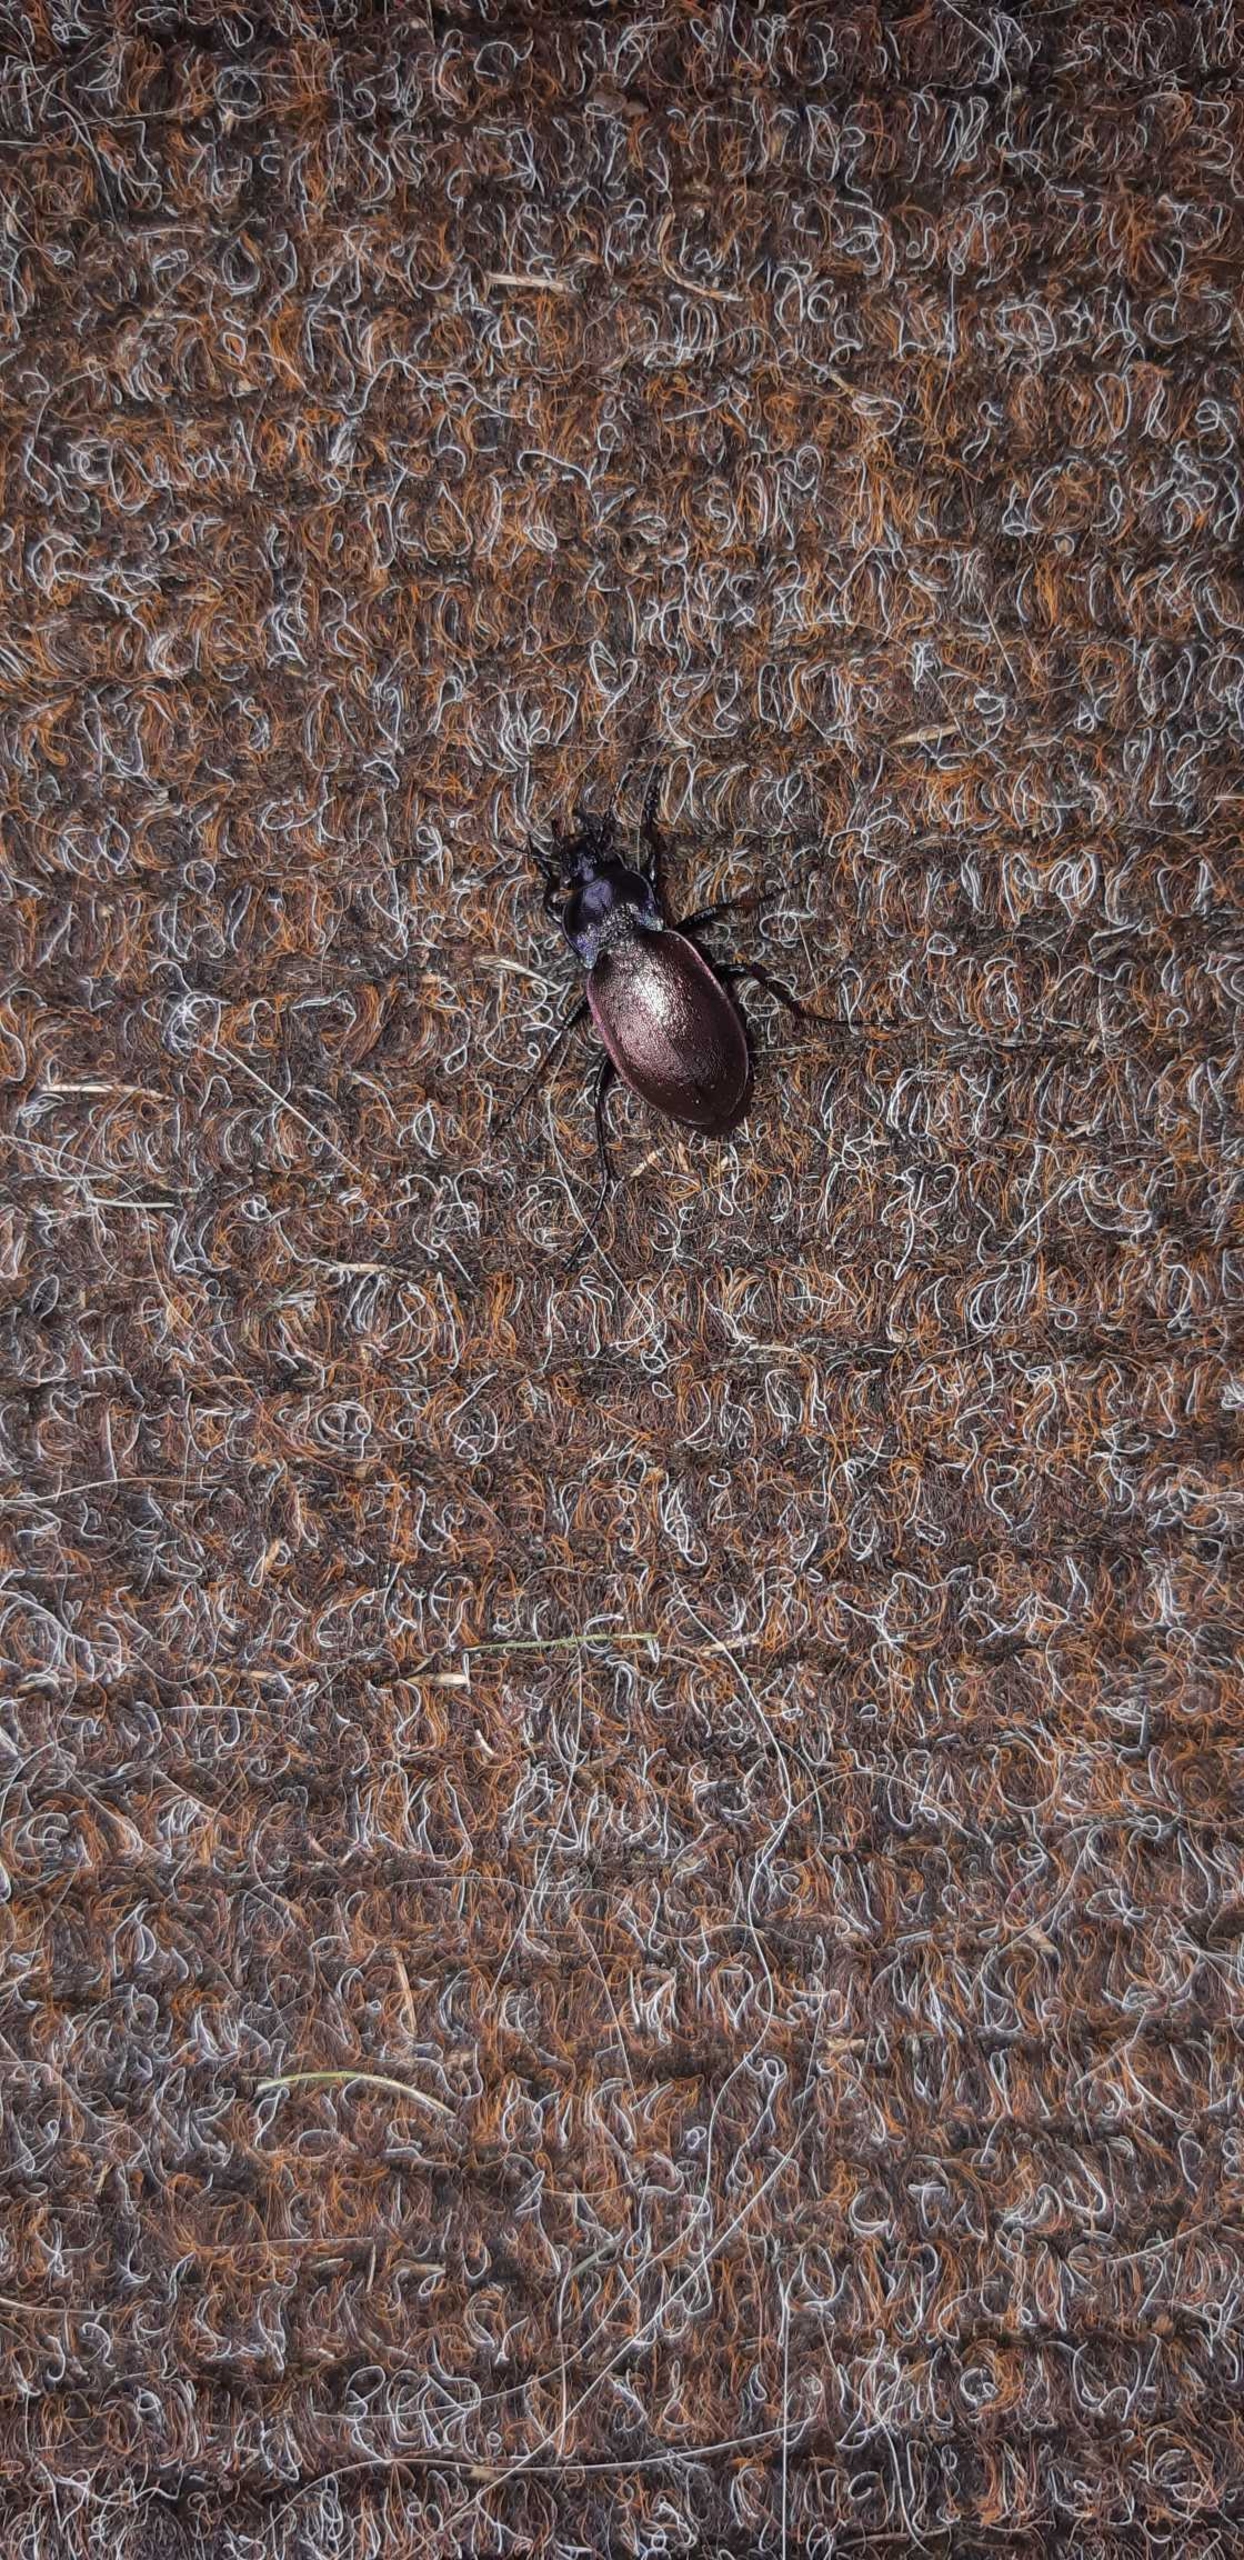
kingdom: Animalia
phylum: Arthropoda
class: Insecta
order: Coleoptera
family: Carabidae
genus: Carabus
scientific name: Carabus nemoralis
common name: Kratløber
